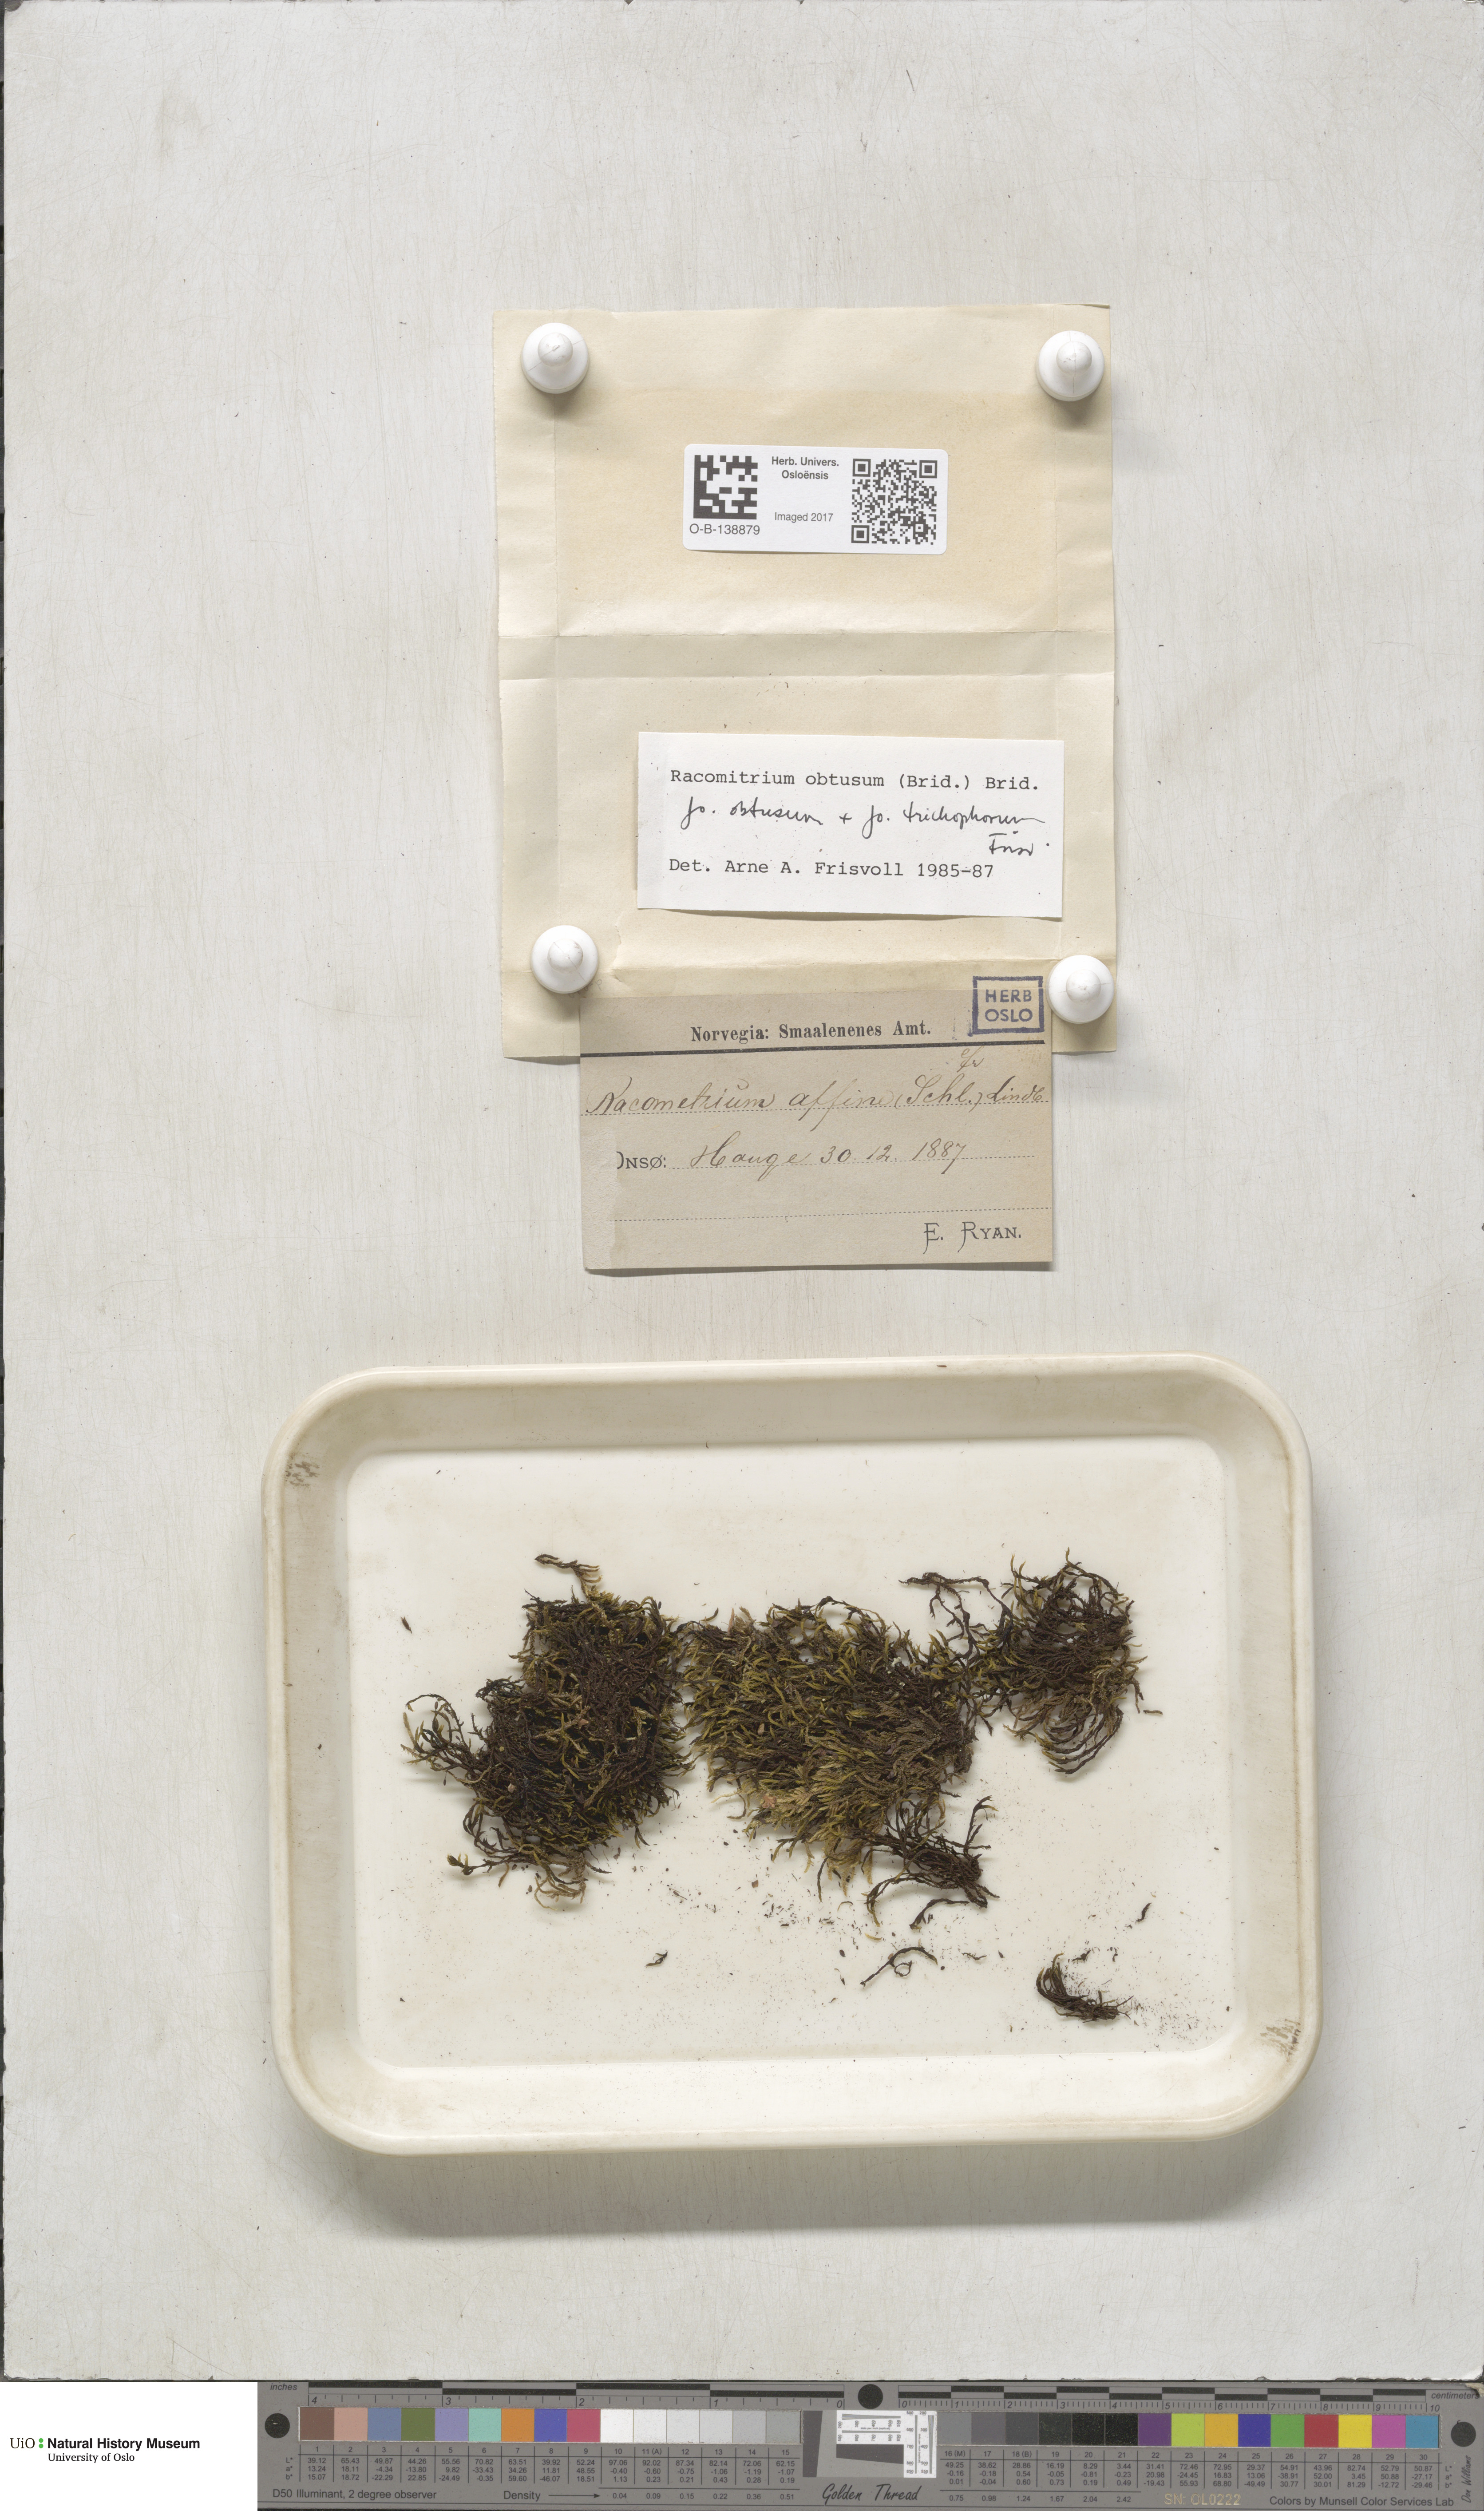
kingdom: Plantae
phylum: Bryophyta
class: Bryopsida
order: Grimmiales
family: Grimmiaceae
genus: Bucklandiella
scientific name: Bucklandiella obtusa
